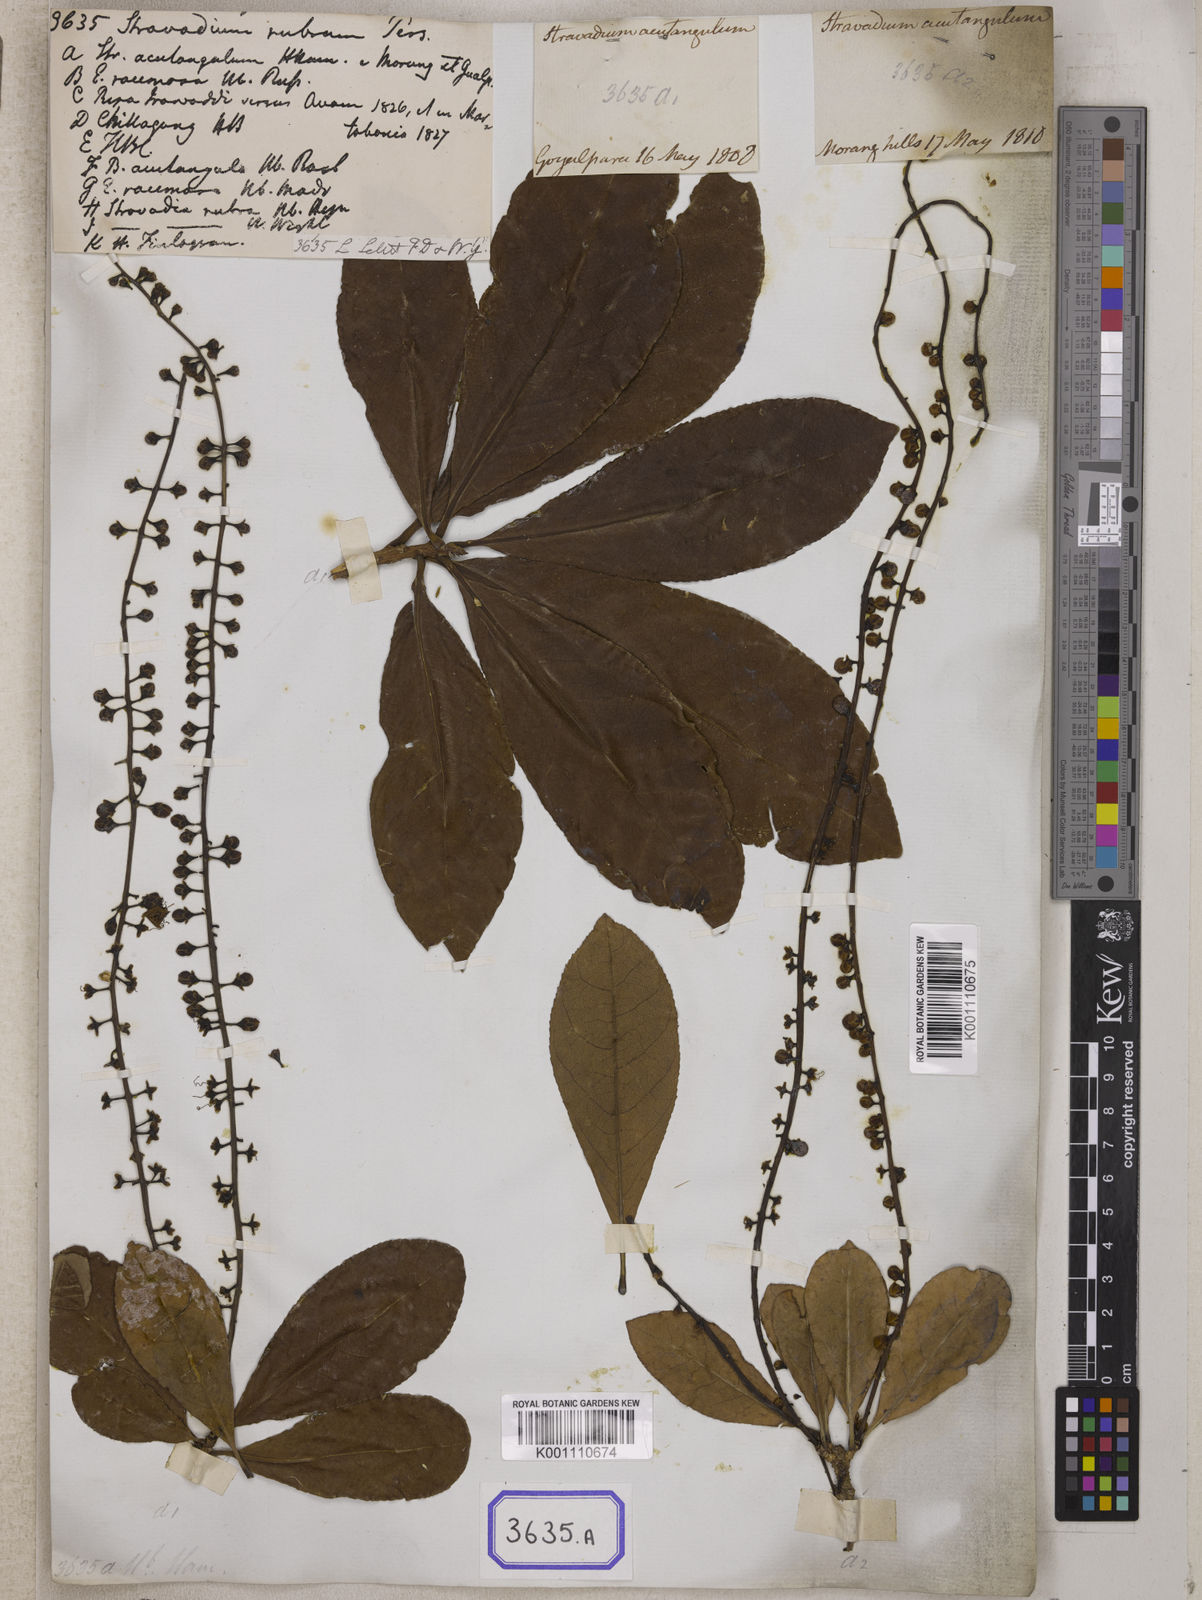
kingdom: Plantae
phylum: Tracheophyta
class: Magnoliopsida
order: Ericales
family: Lecythidaceae
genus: Barringtonia
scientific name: Barringtonia acutangula
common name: Freshwater mangrove
